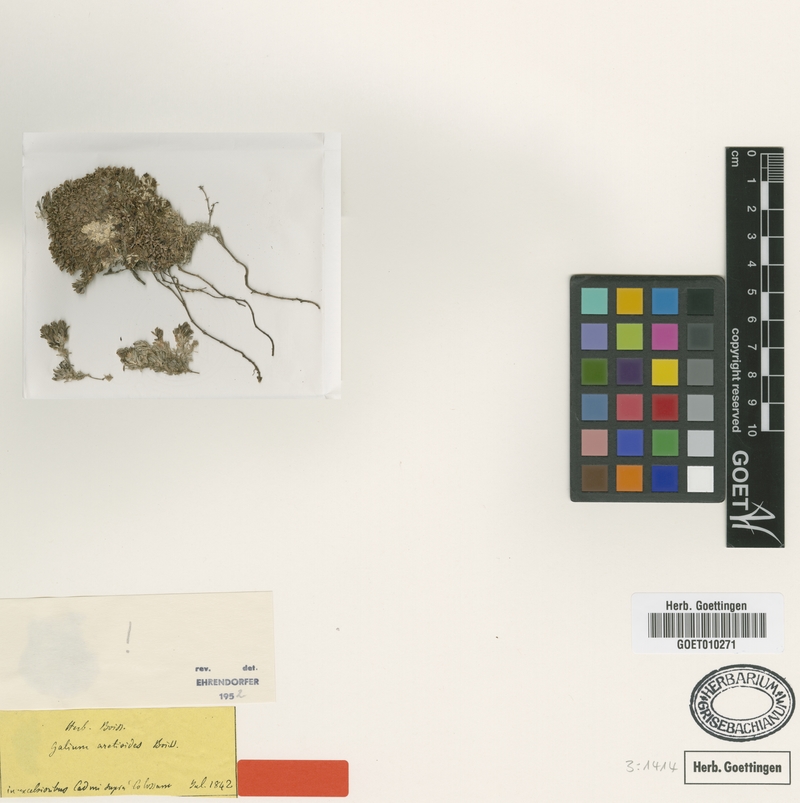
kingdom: Plantae
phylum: Tracheophyta
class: Magnoliopsida
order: Gentianales
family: Rubiaceae
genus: Galium
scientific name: Galium aretioides
